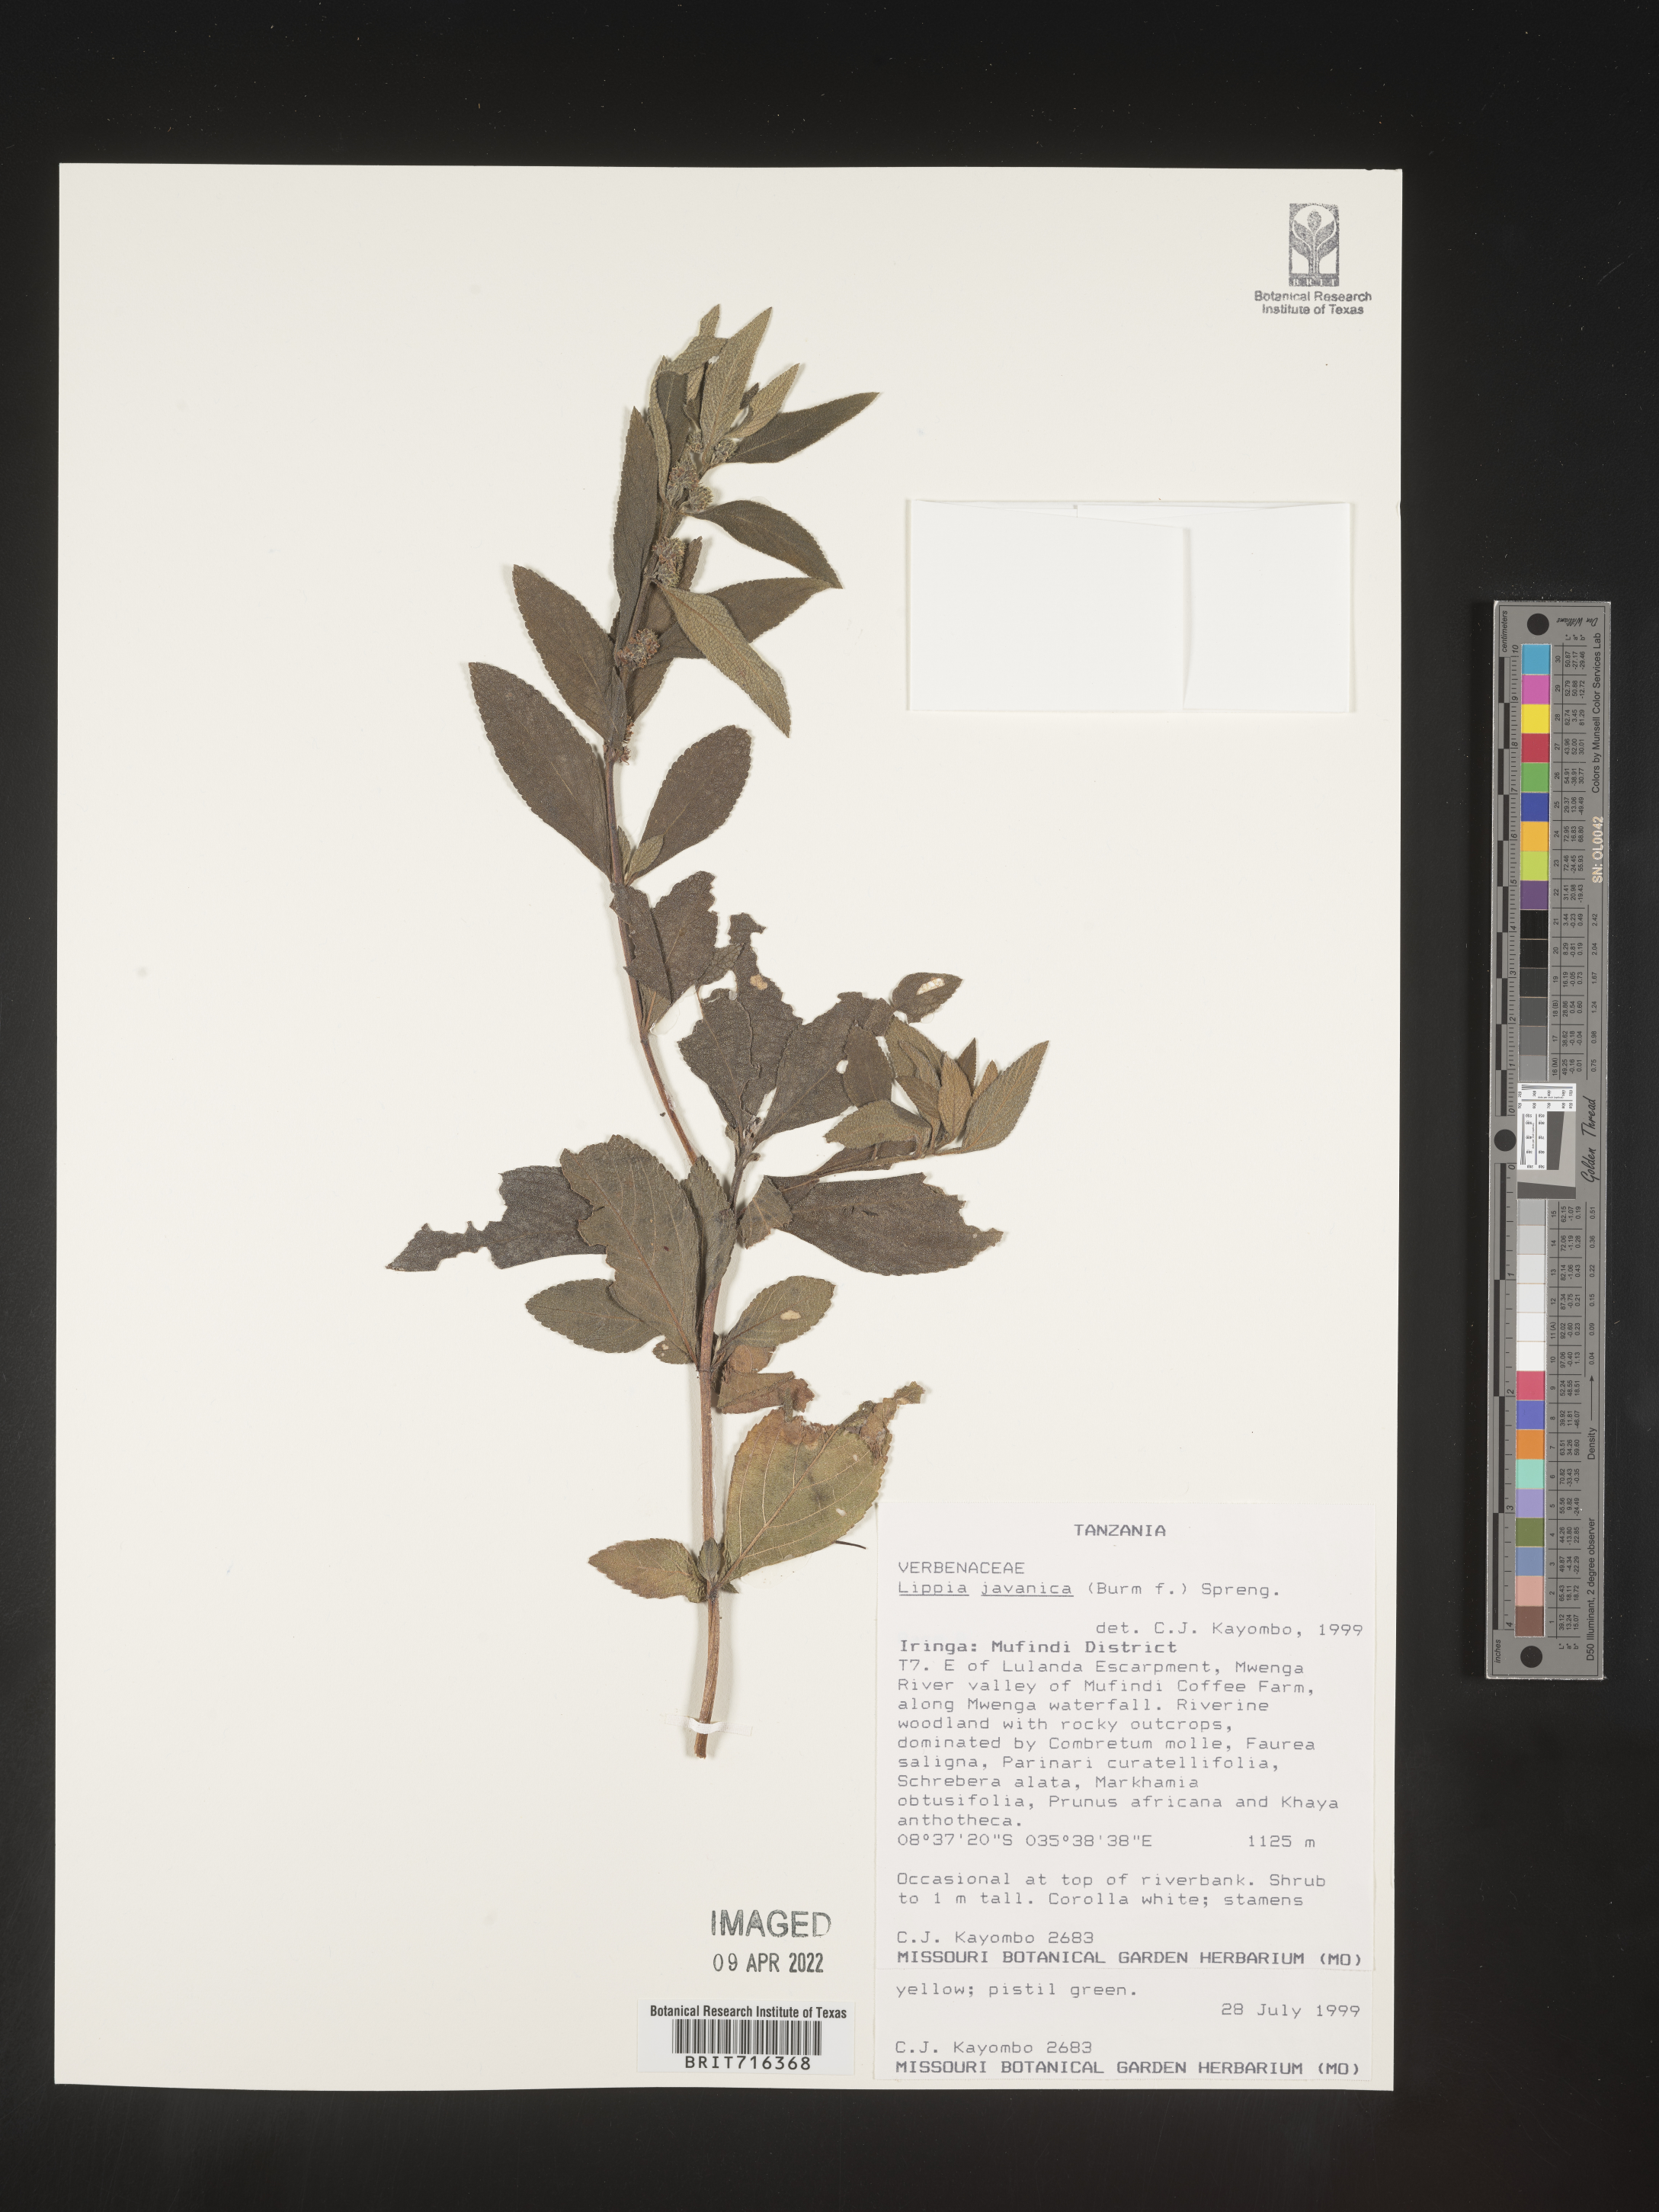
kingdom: Plantae
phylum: Tracheophyta
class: Magnoliopsida
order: Lamiales
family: Verbenaceae
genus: Lippia
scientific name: Lippia
